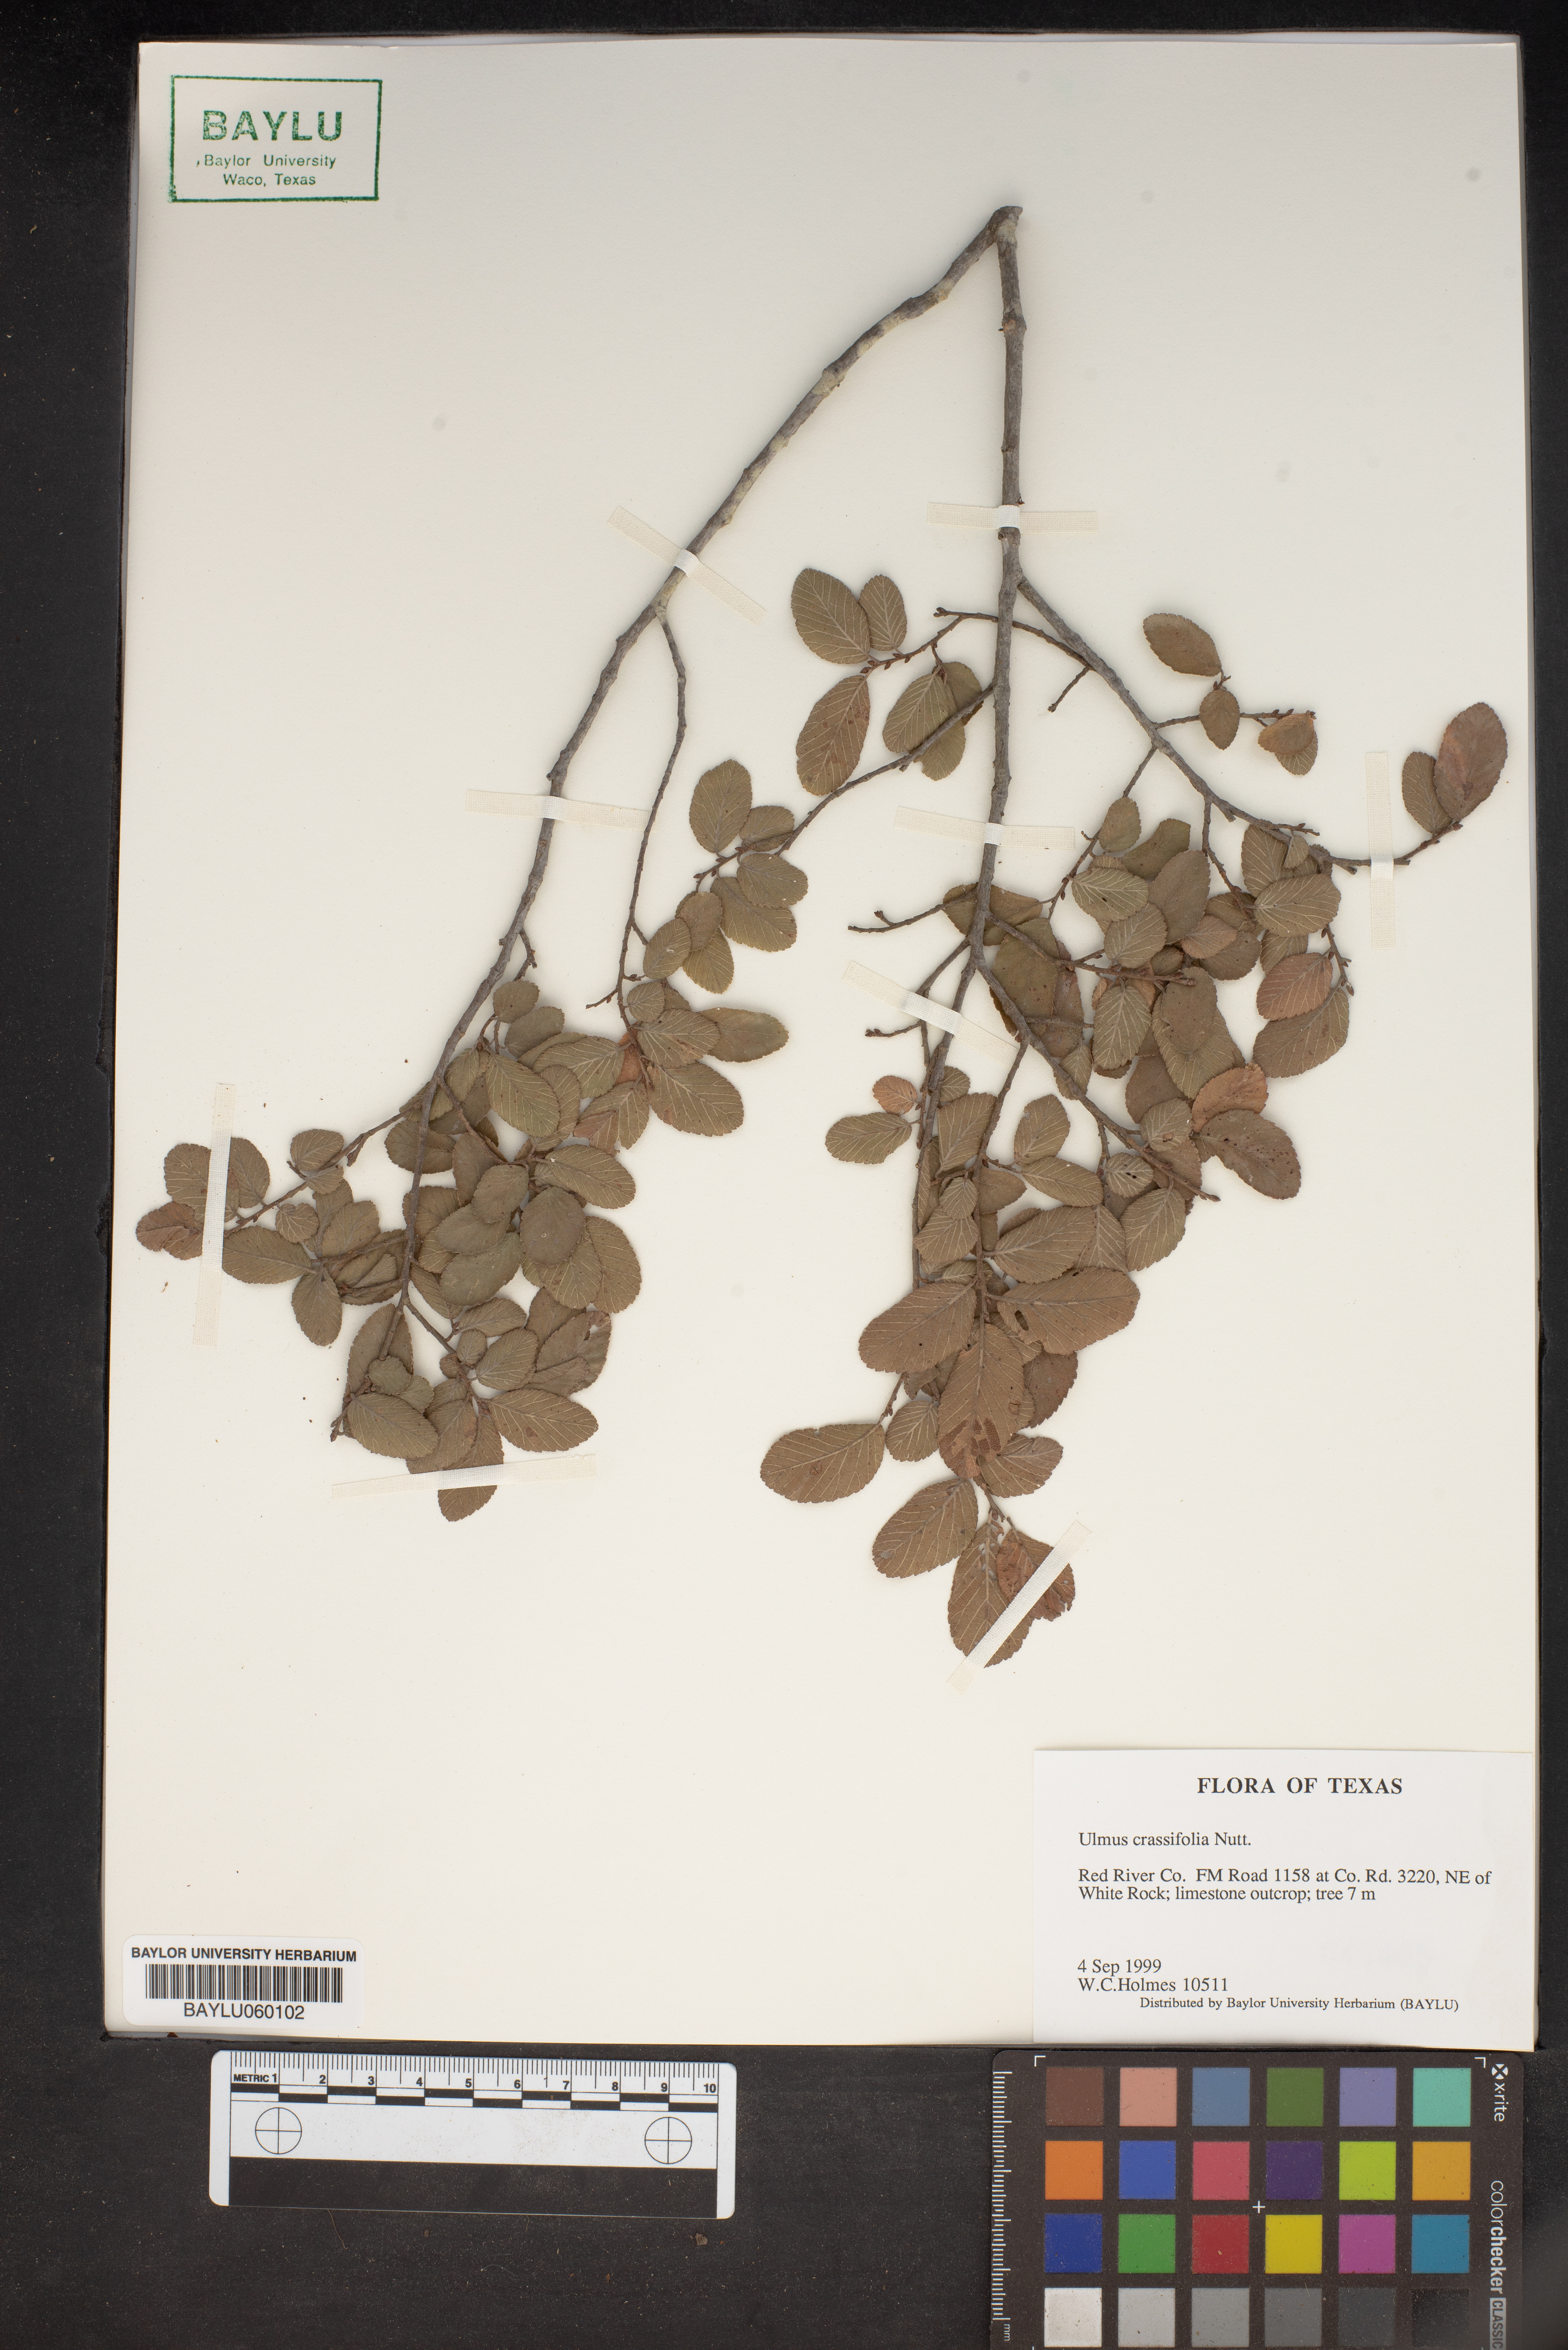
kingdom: Plantae
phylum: Tracheophyta
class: Magnoliopsida
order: Rosales
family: Ulmaceae
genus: Ulmus
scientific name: Ulmus crassifolia
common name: Basket elm
